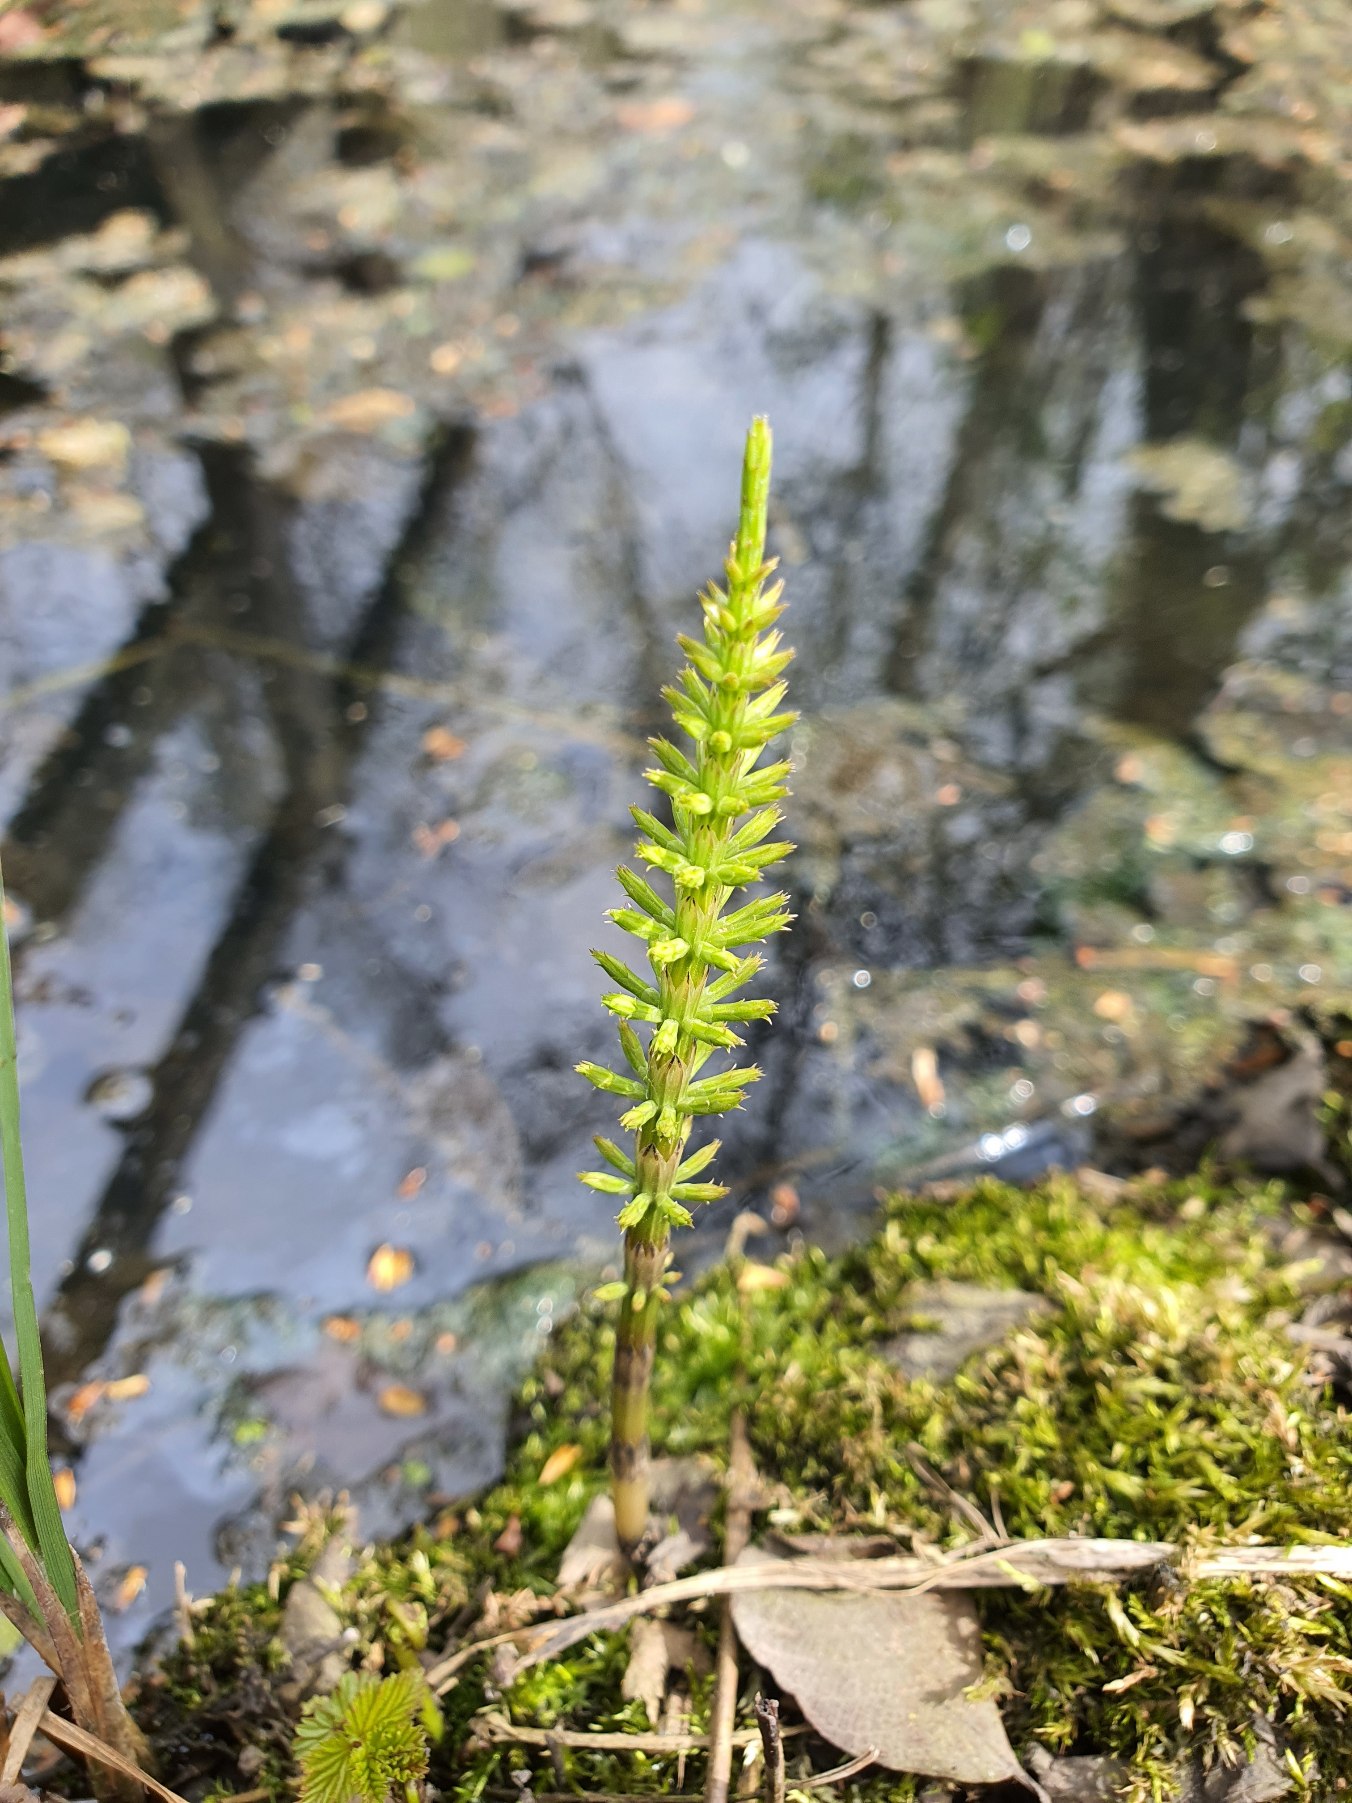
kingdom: Plantae
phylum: Tracheophyta
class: Polypodiopsida
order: Equisetales
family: Equisetaceae
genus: Equisetum
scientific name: Equisetum arvense
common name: Ager-padderok
